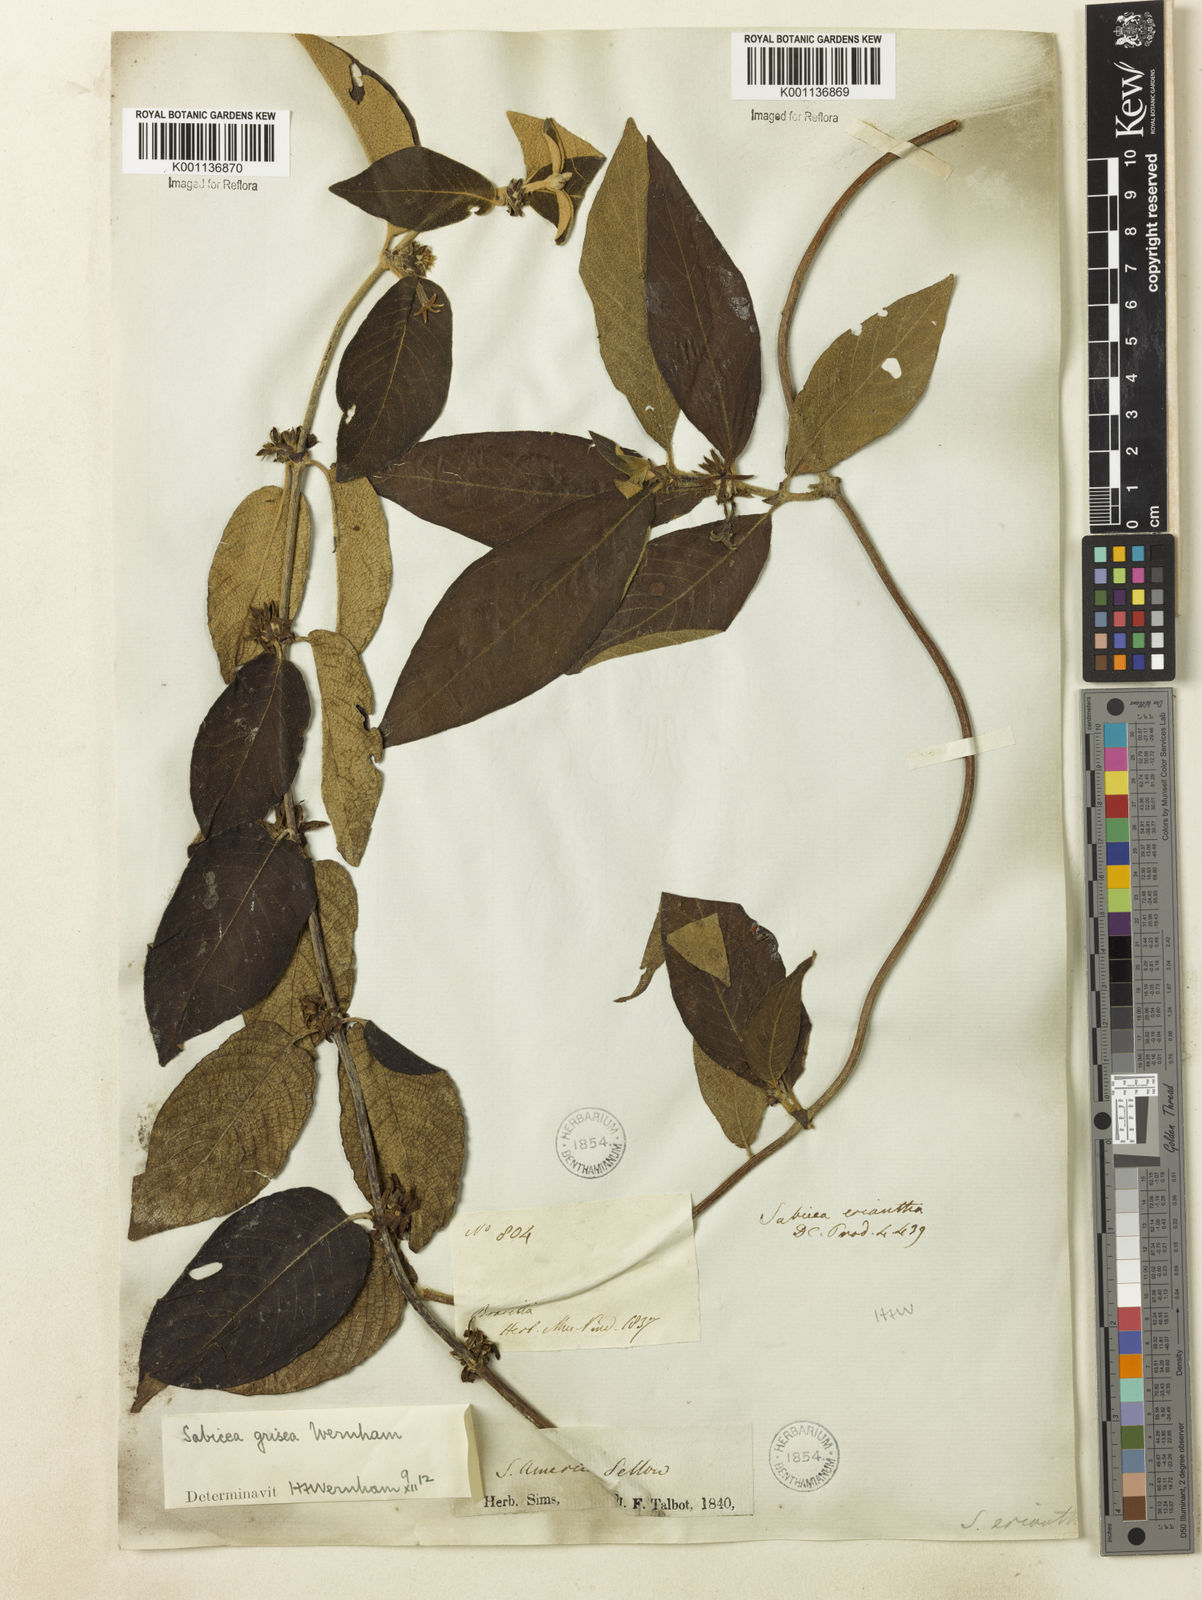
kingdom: Plantae
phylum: Tracheophyta
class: Magnoliopsida
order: Gentianales
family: Rubiaceae
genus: Sabicea
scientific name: Sabicea grisea
